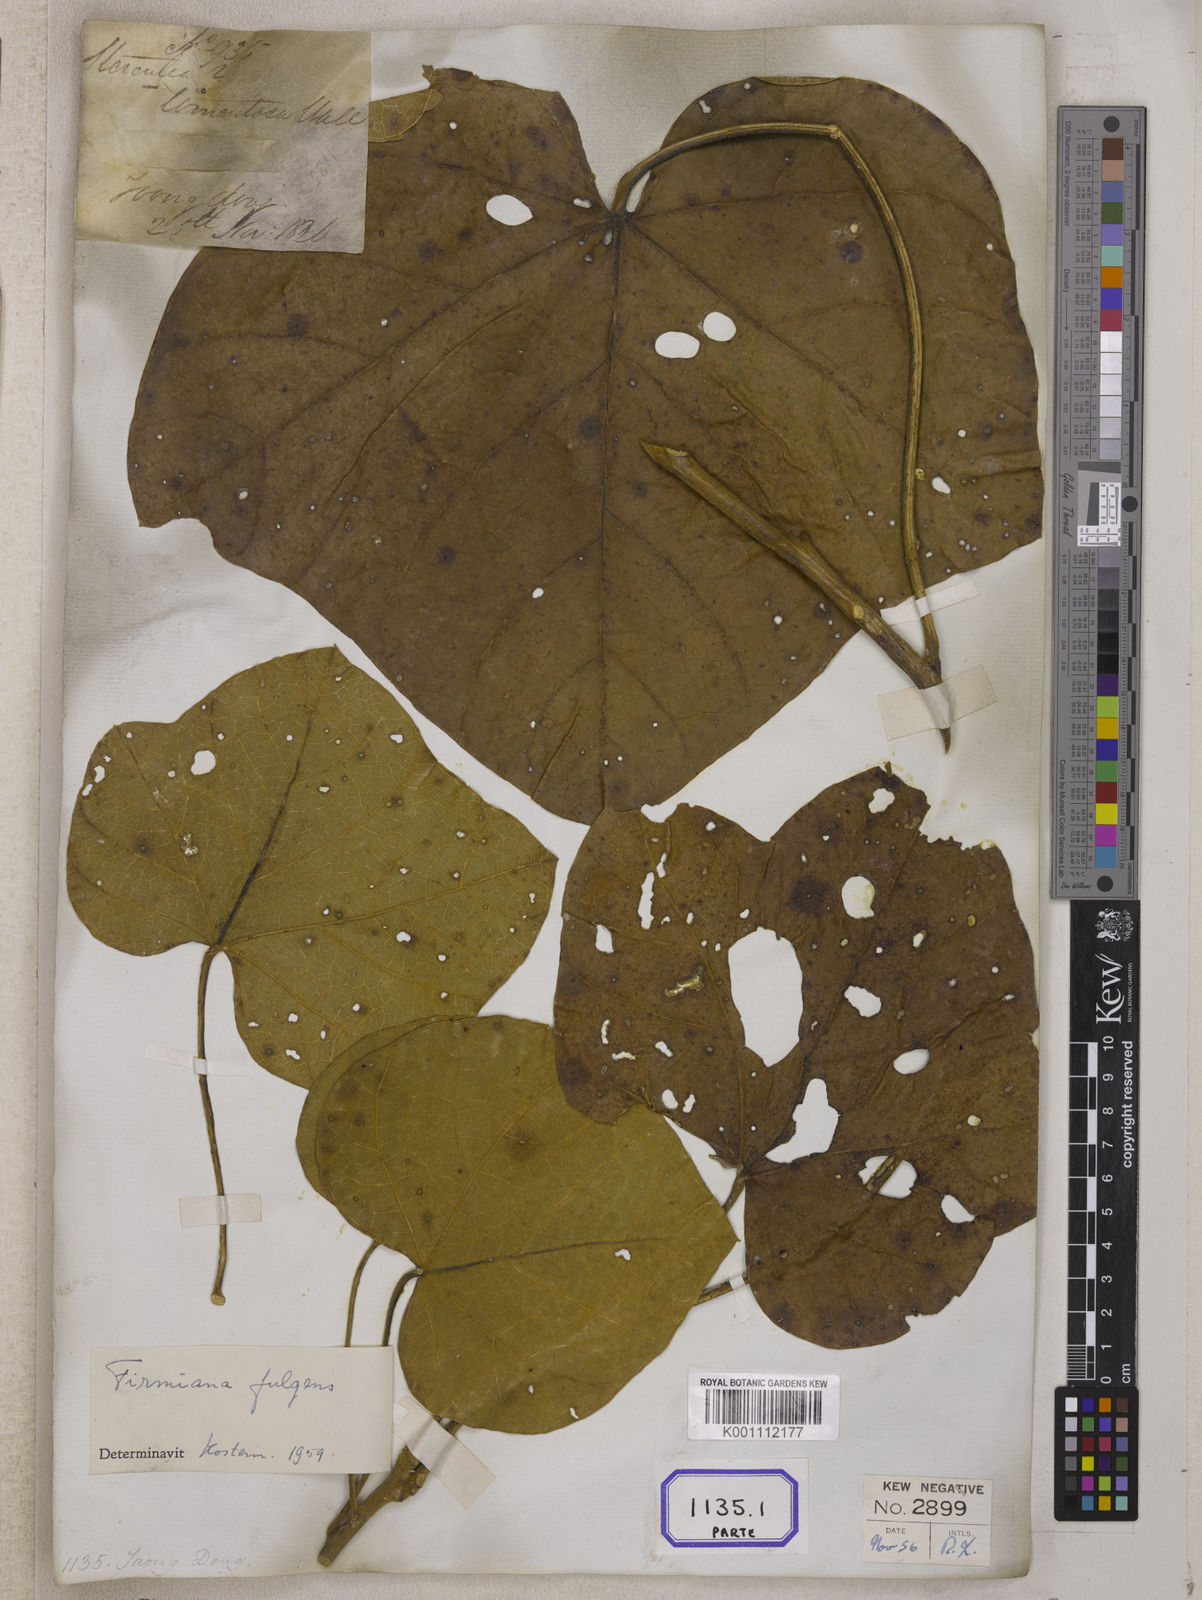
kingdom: Plantae
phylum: Tracheophyta
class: Magnoliopsida
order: Malvales
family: Malvaceae
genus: Sterculia
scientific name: Sterculia
